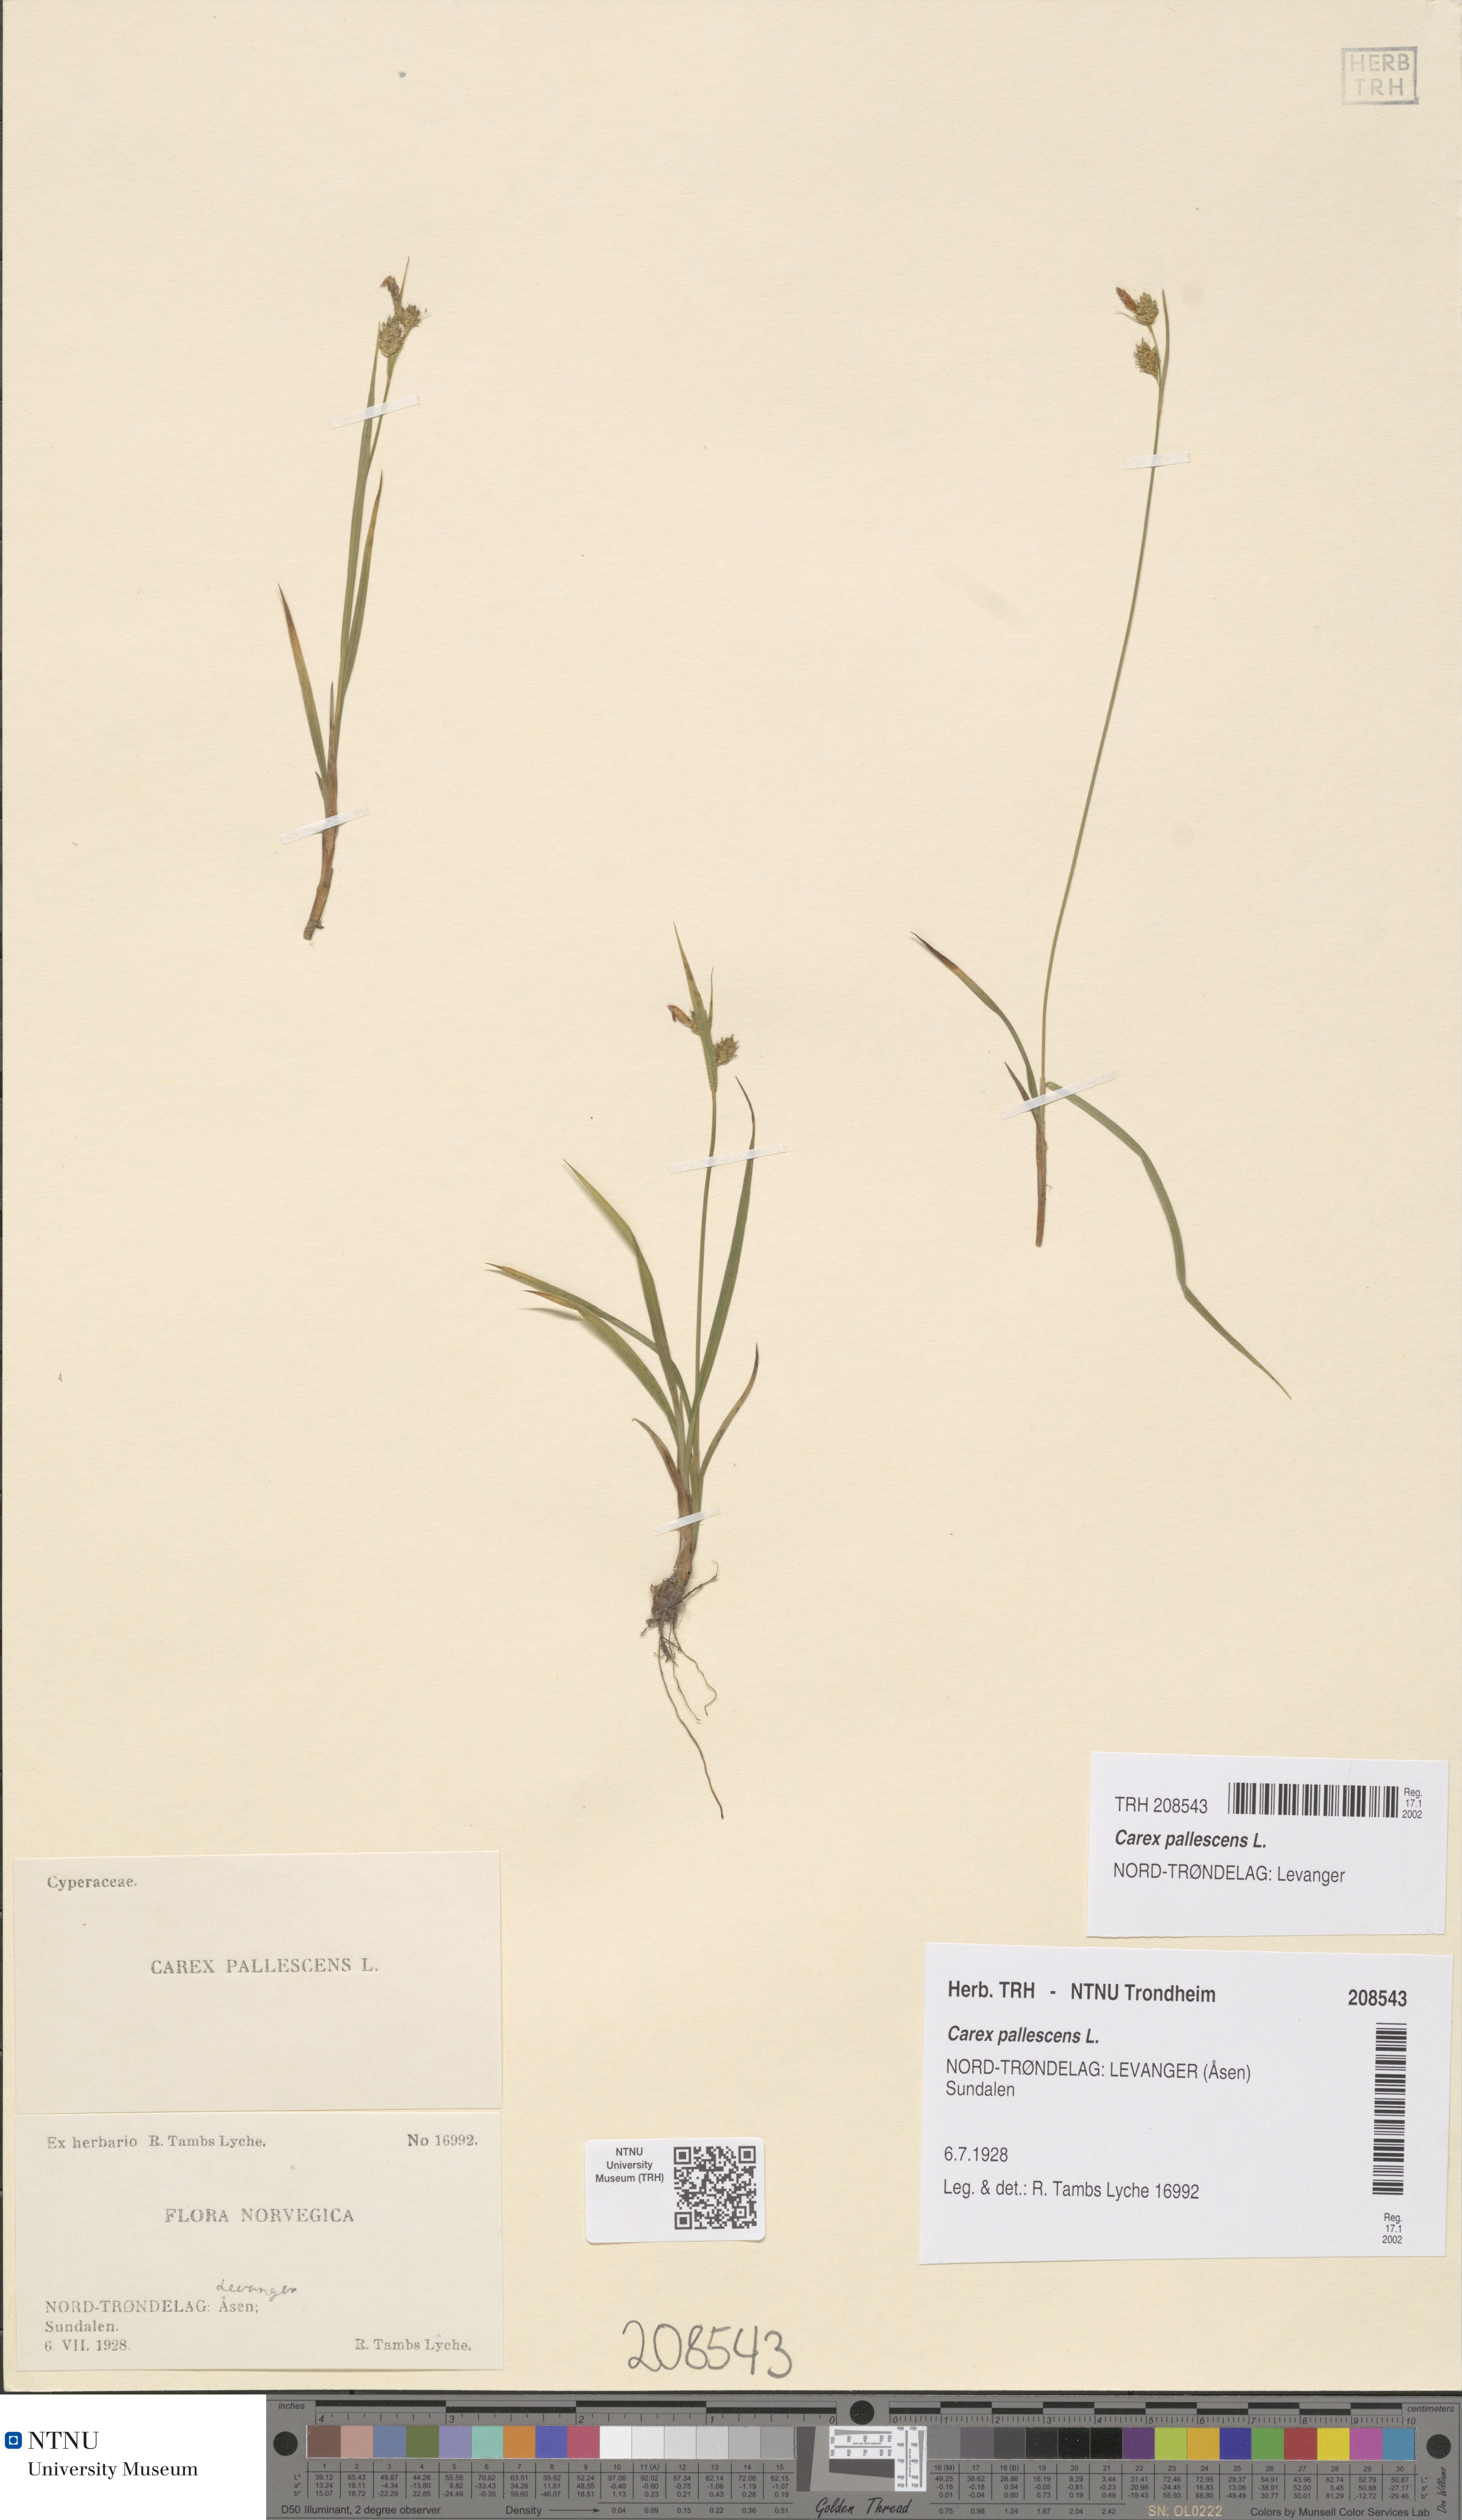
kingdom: Plantae
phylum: Tracheophyta
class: Liliopsida
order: Poales
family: Cyperaceae
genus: Carex
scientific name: Carex pallescens
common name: Pale sedge
